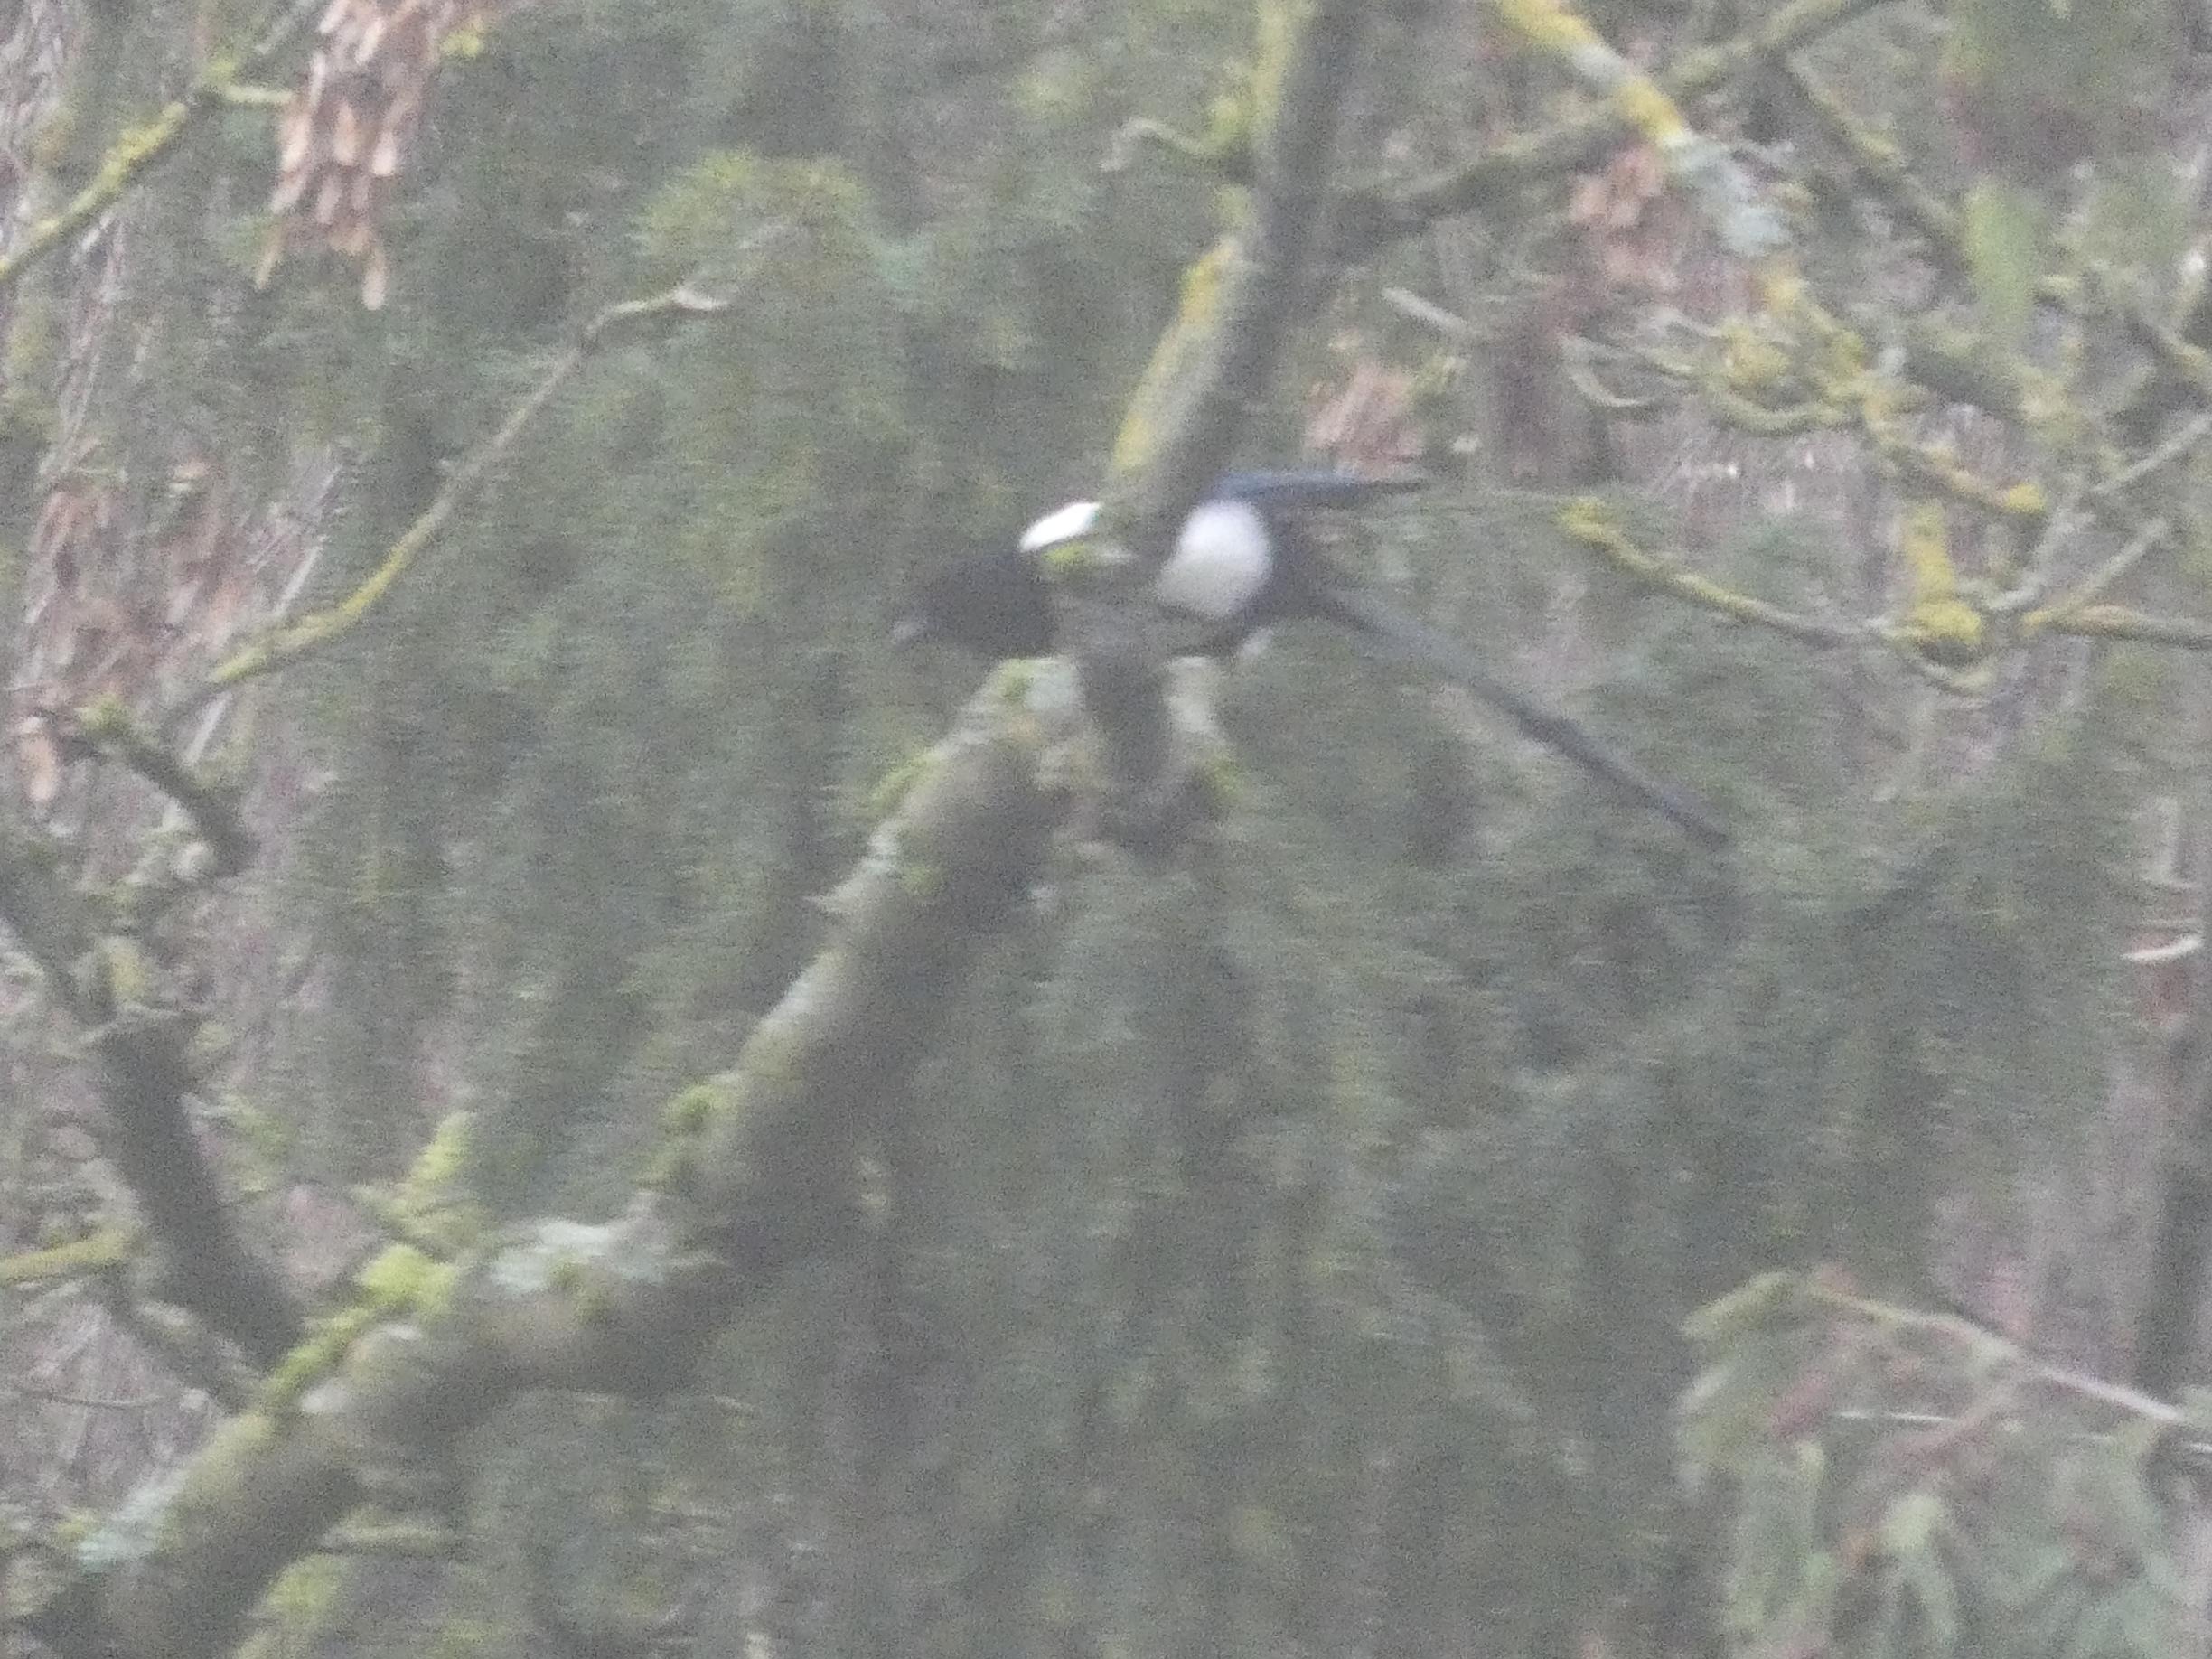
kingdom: Animalia
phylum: Chordata
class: Aves
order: Passeriformes
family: Corvidae
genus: Pica
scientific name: Pica pica
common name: Husskade
